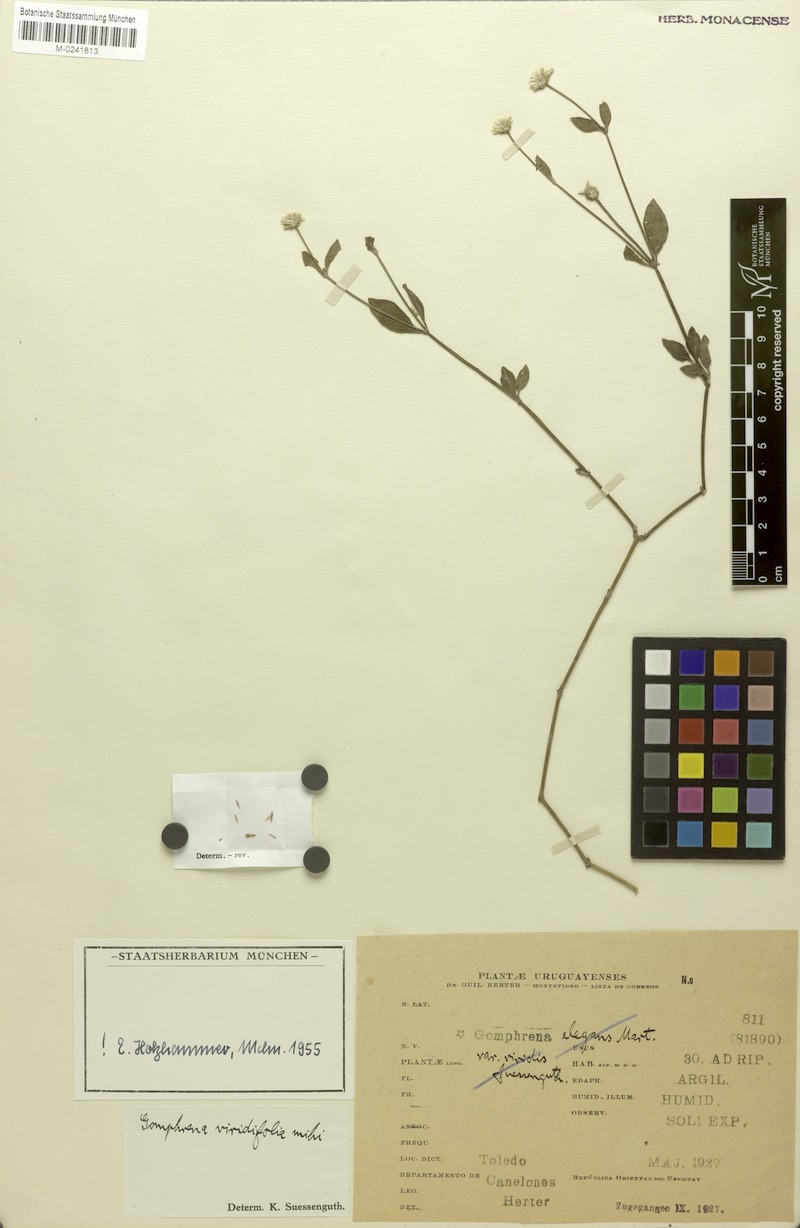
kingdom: Plantae
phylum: Tracheophyta
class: Magnoliopsida
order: Caryophyllales
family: Amaranthaceae
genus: Gomphrena
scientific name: Gomphrena elegans
